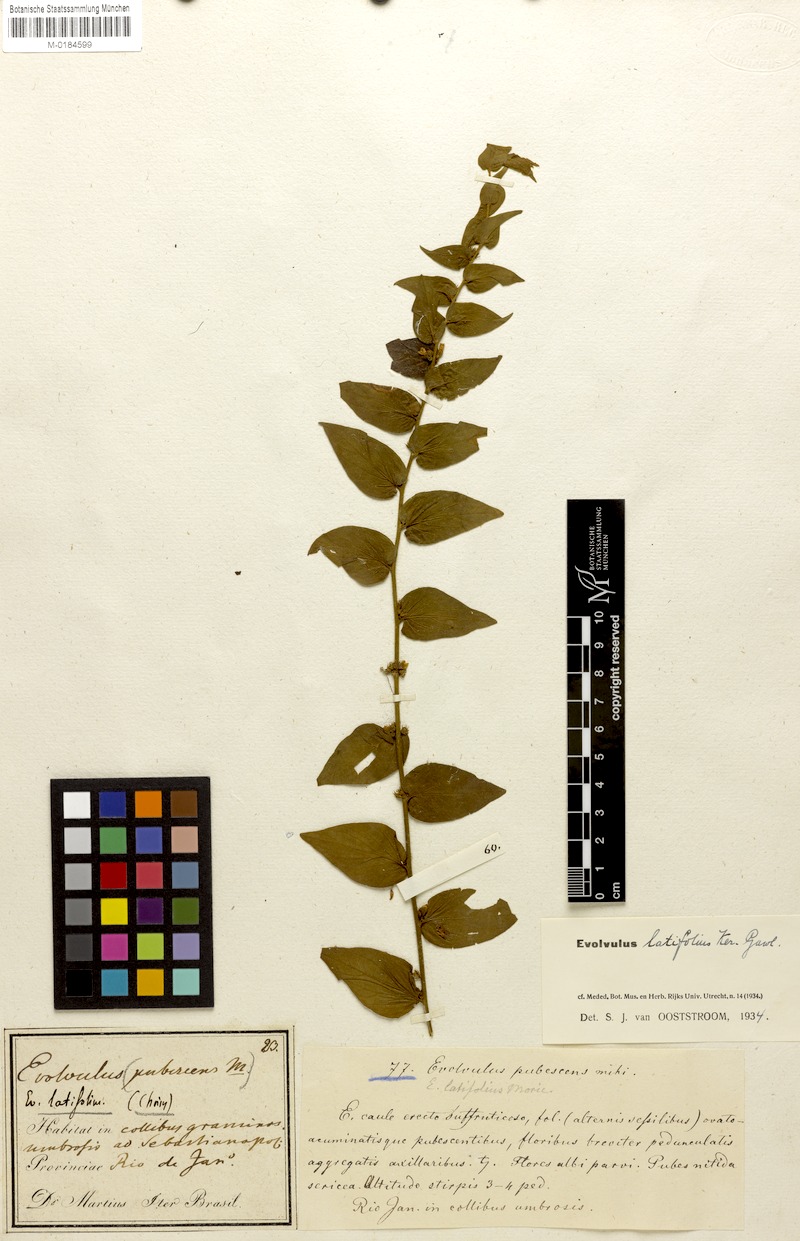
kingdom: Plantae
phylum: Tracheophyta
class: Magnoliopsida
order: Solanales
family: Convolvulaceae
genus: Evolvulus
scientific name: Evolvulus latifolius
